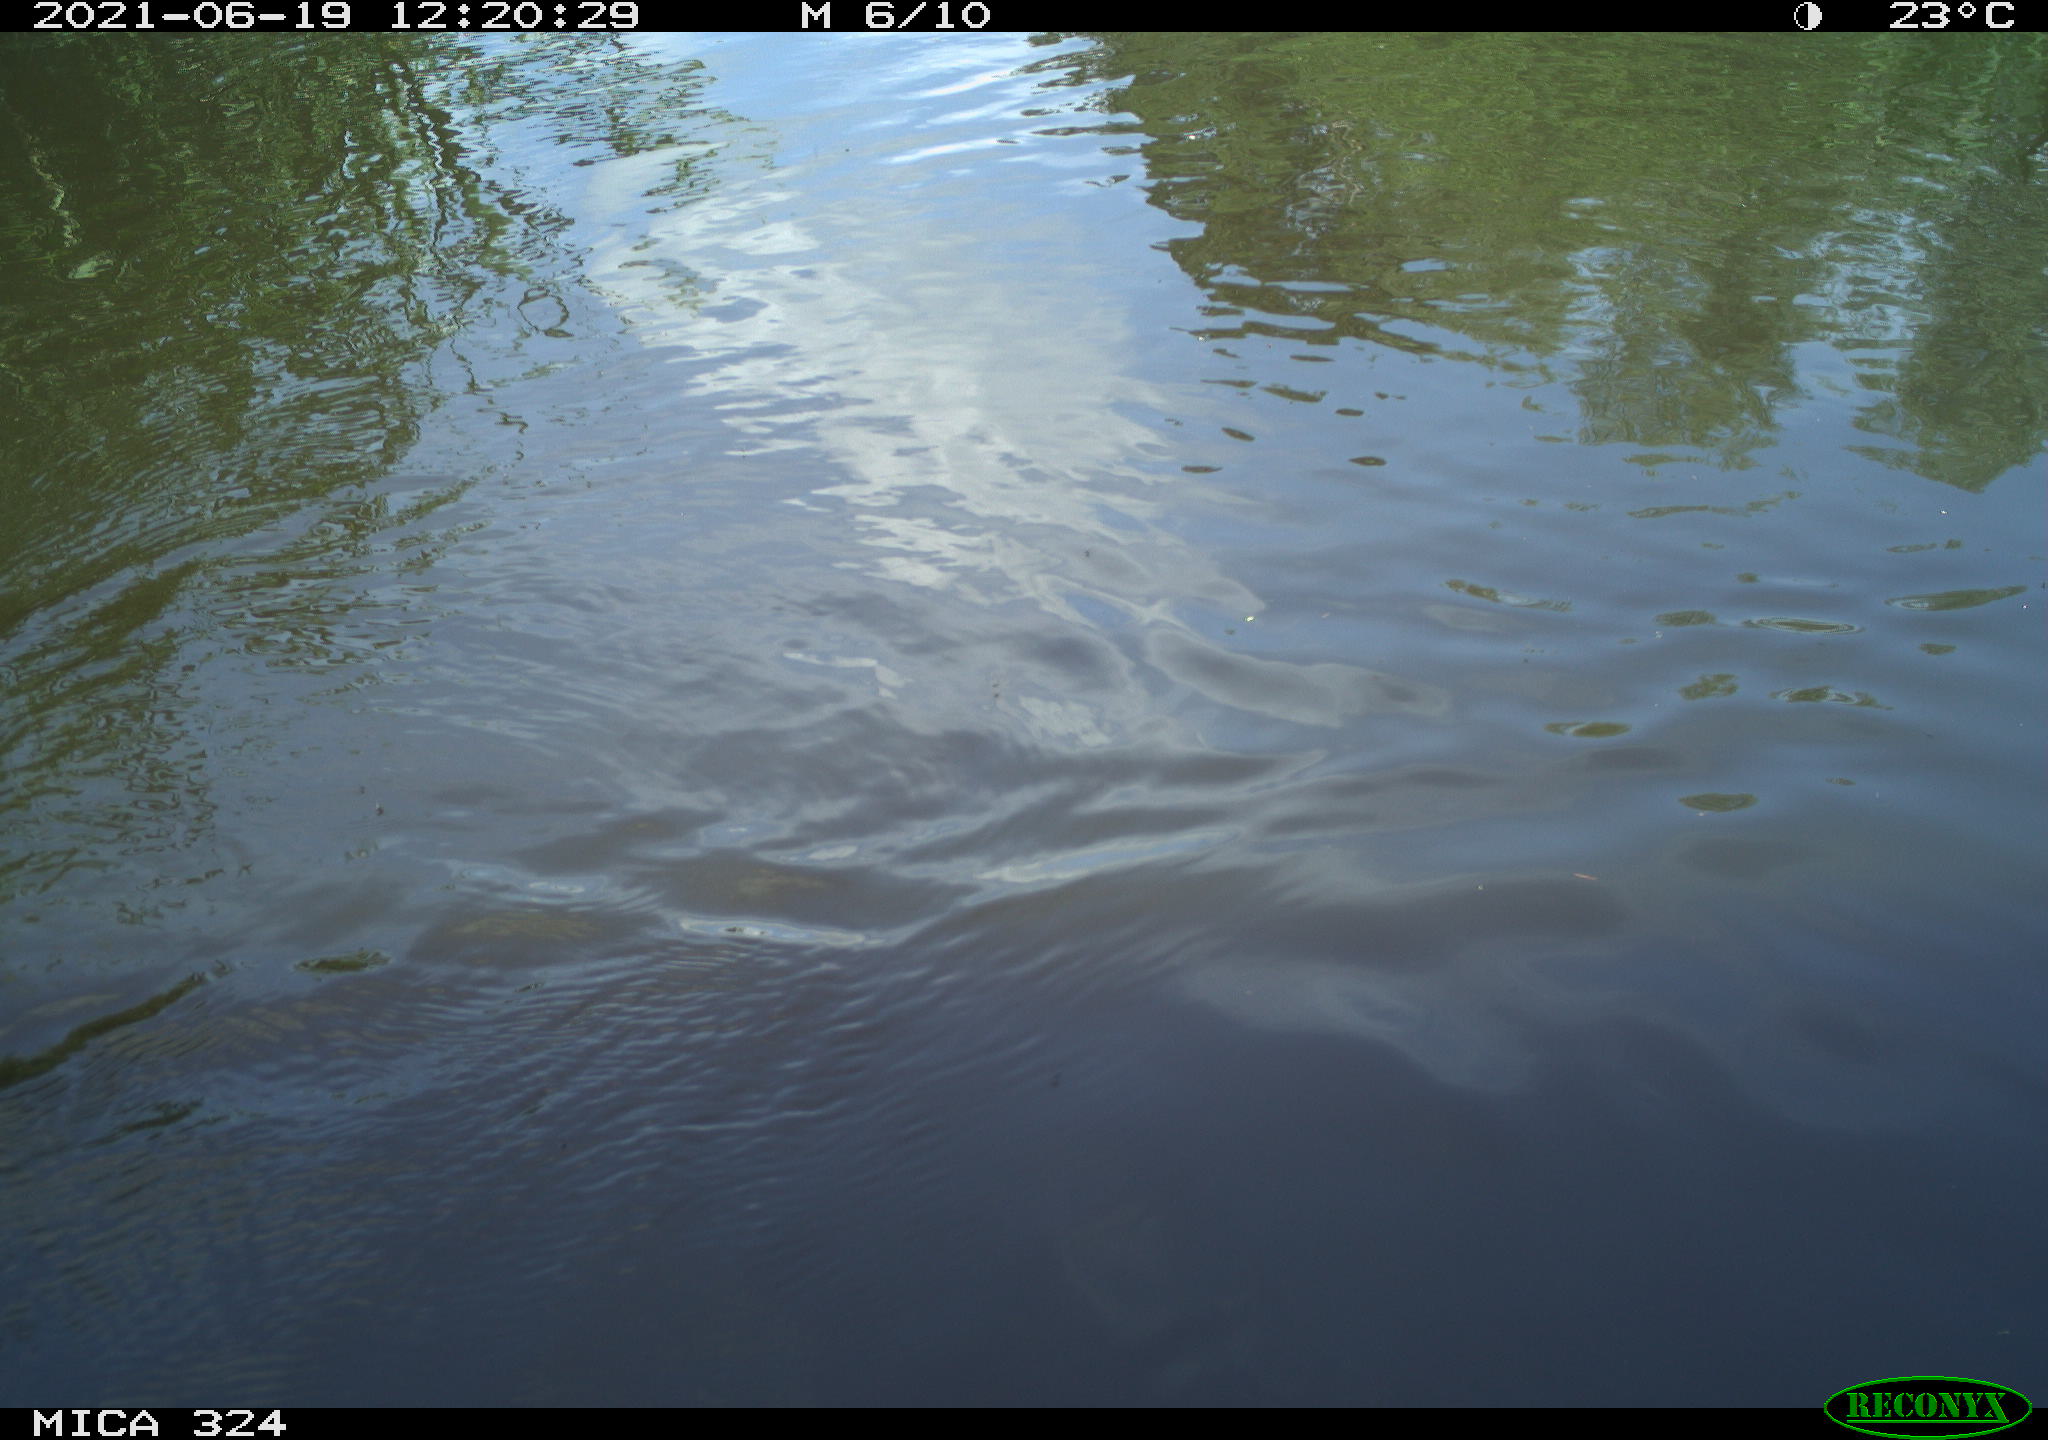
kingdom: Animalia
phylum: Chordata
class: Aves
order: Gruiformes
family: Rallidae
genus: Gallinula
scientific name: Gallinula chloropus
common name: Common moorhen
